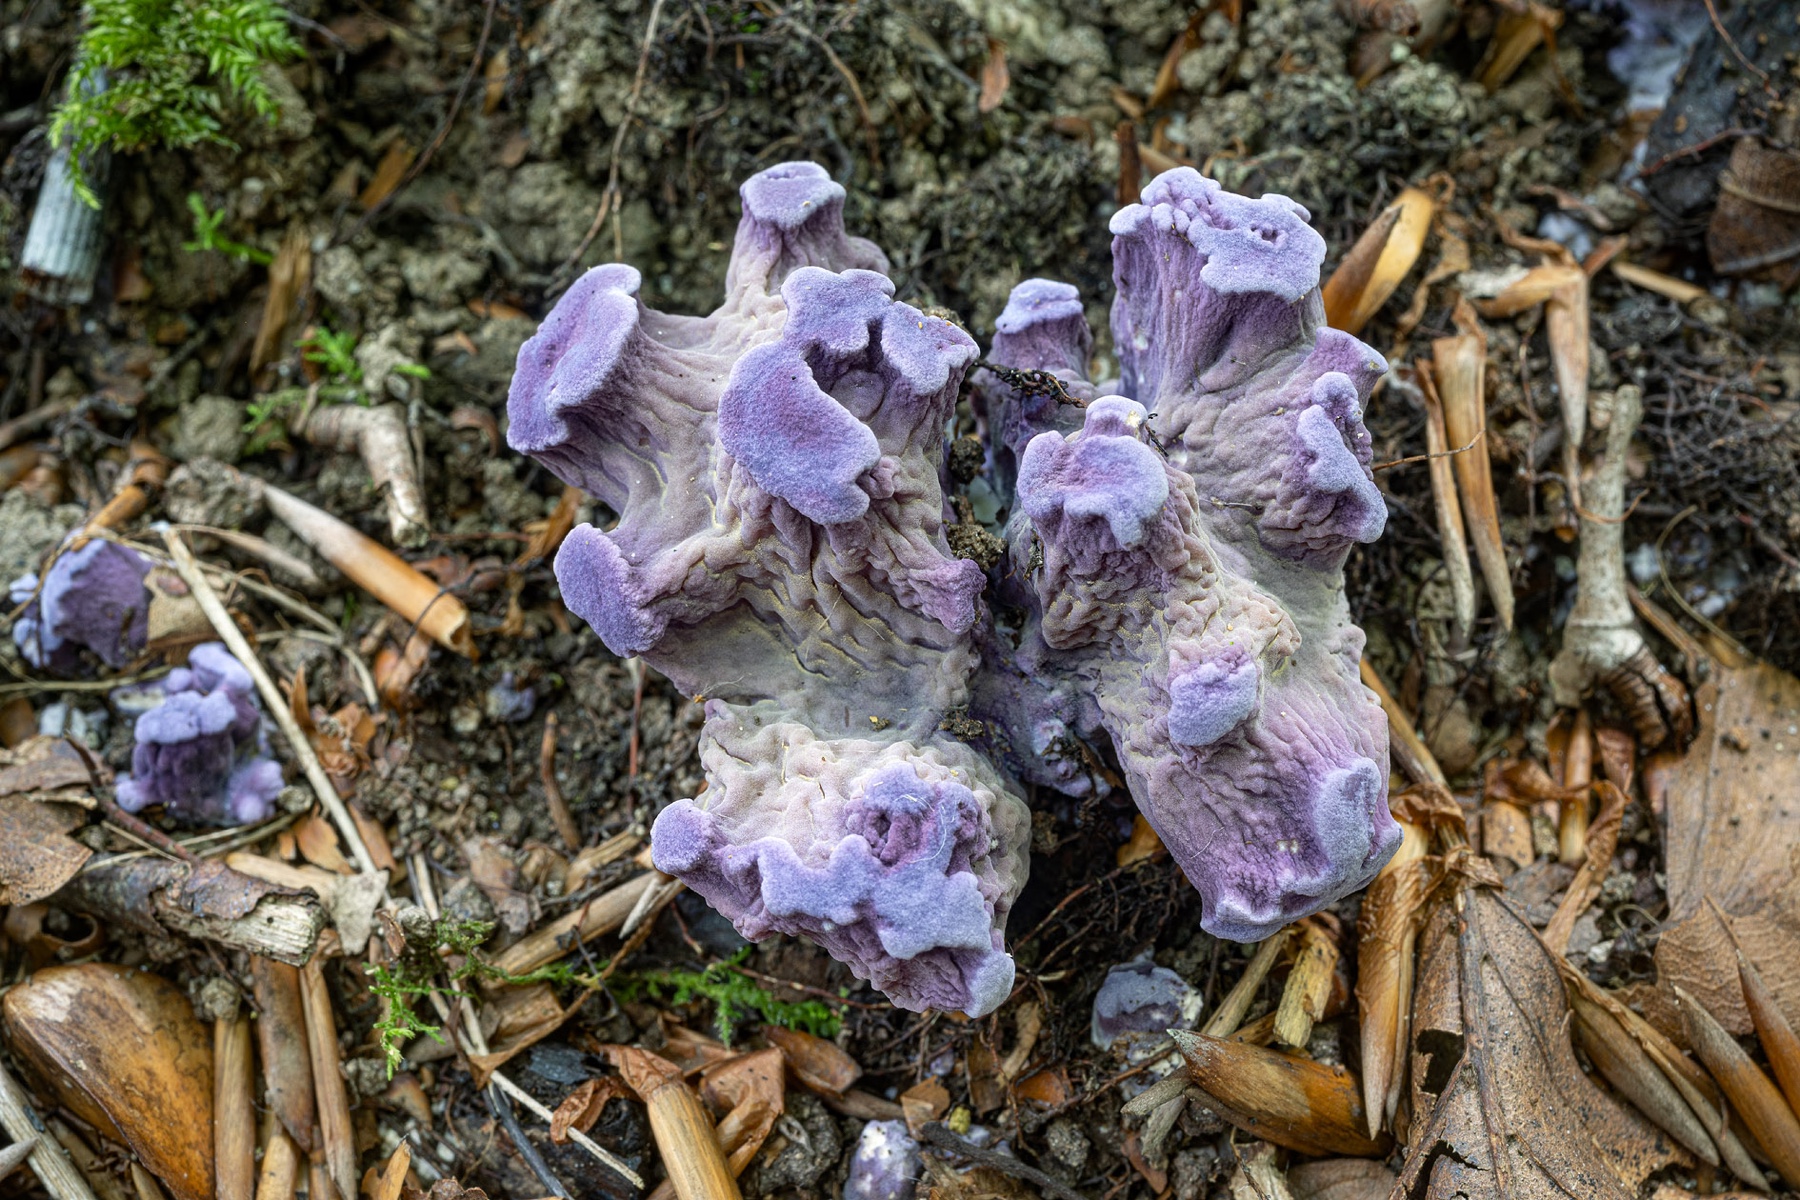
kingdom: Fungi
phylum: Basidiomycota
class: Agaricomycetes
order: Gomphales
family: Gomphaceae
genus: Gomphus
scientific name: Gomphus clavatus
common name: køllekantarel
